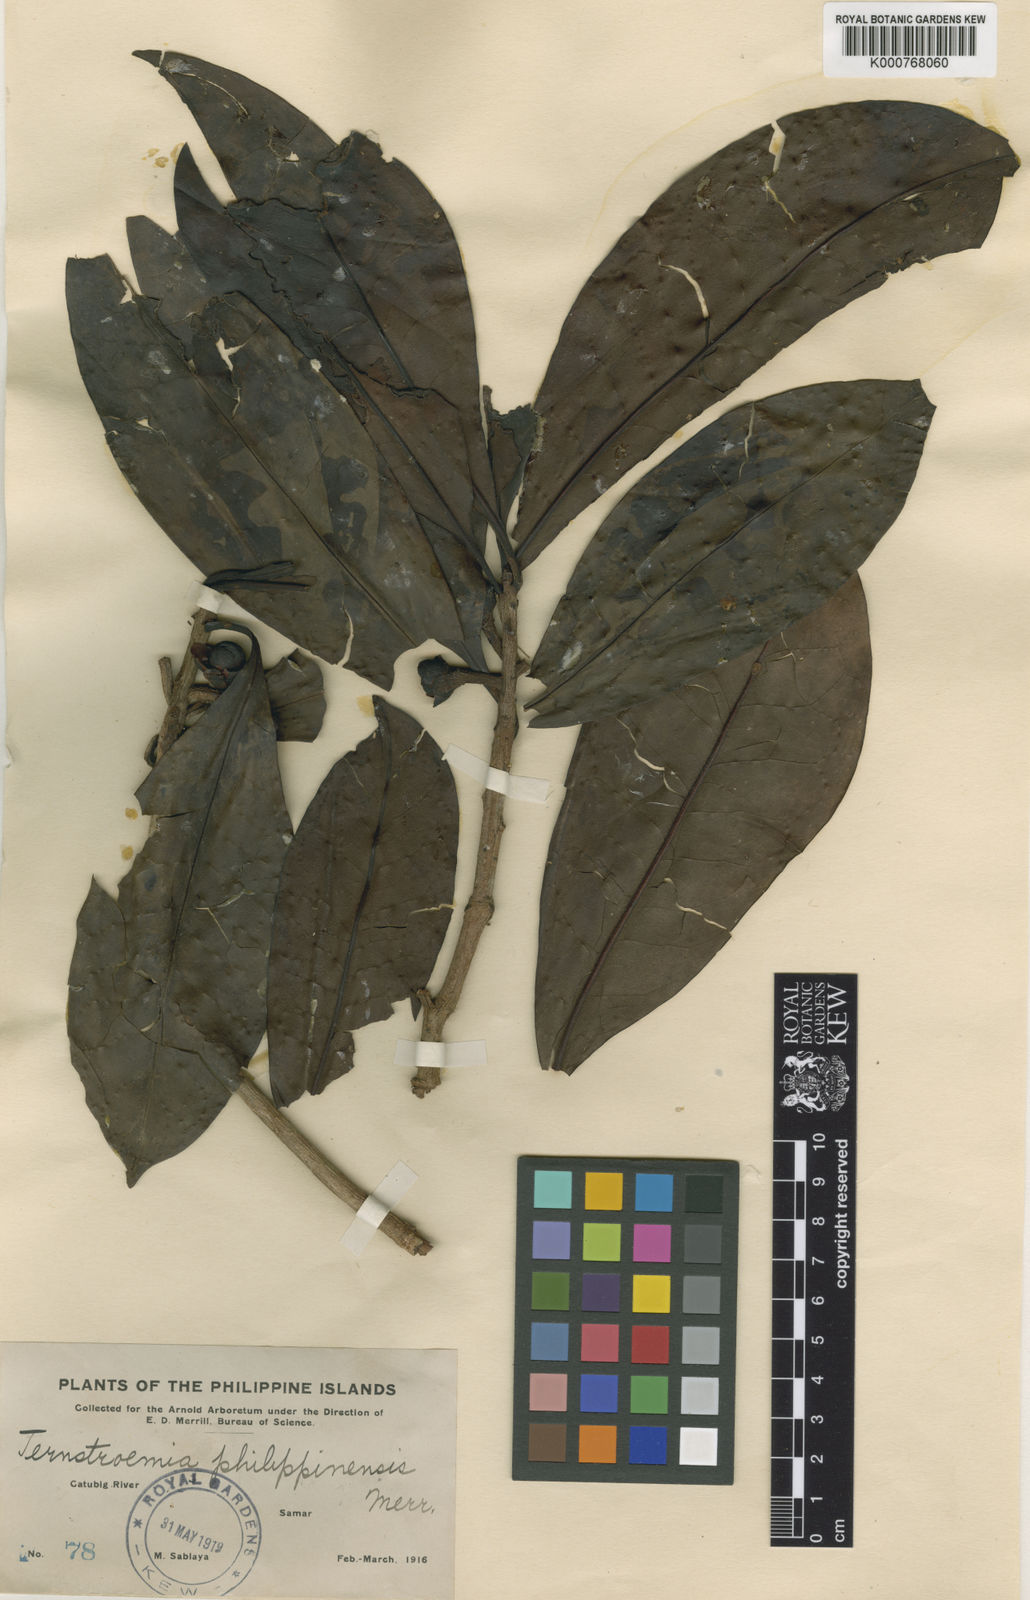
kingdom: Plantae
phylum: Tracheophyta
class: Magnoliopsida
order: Ericales
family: Pentaphylacaceae
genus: Ternstroemia
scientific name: Ternstroemia philippinensis
